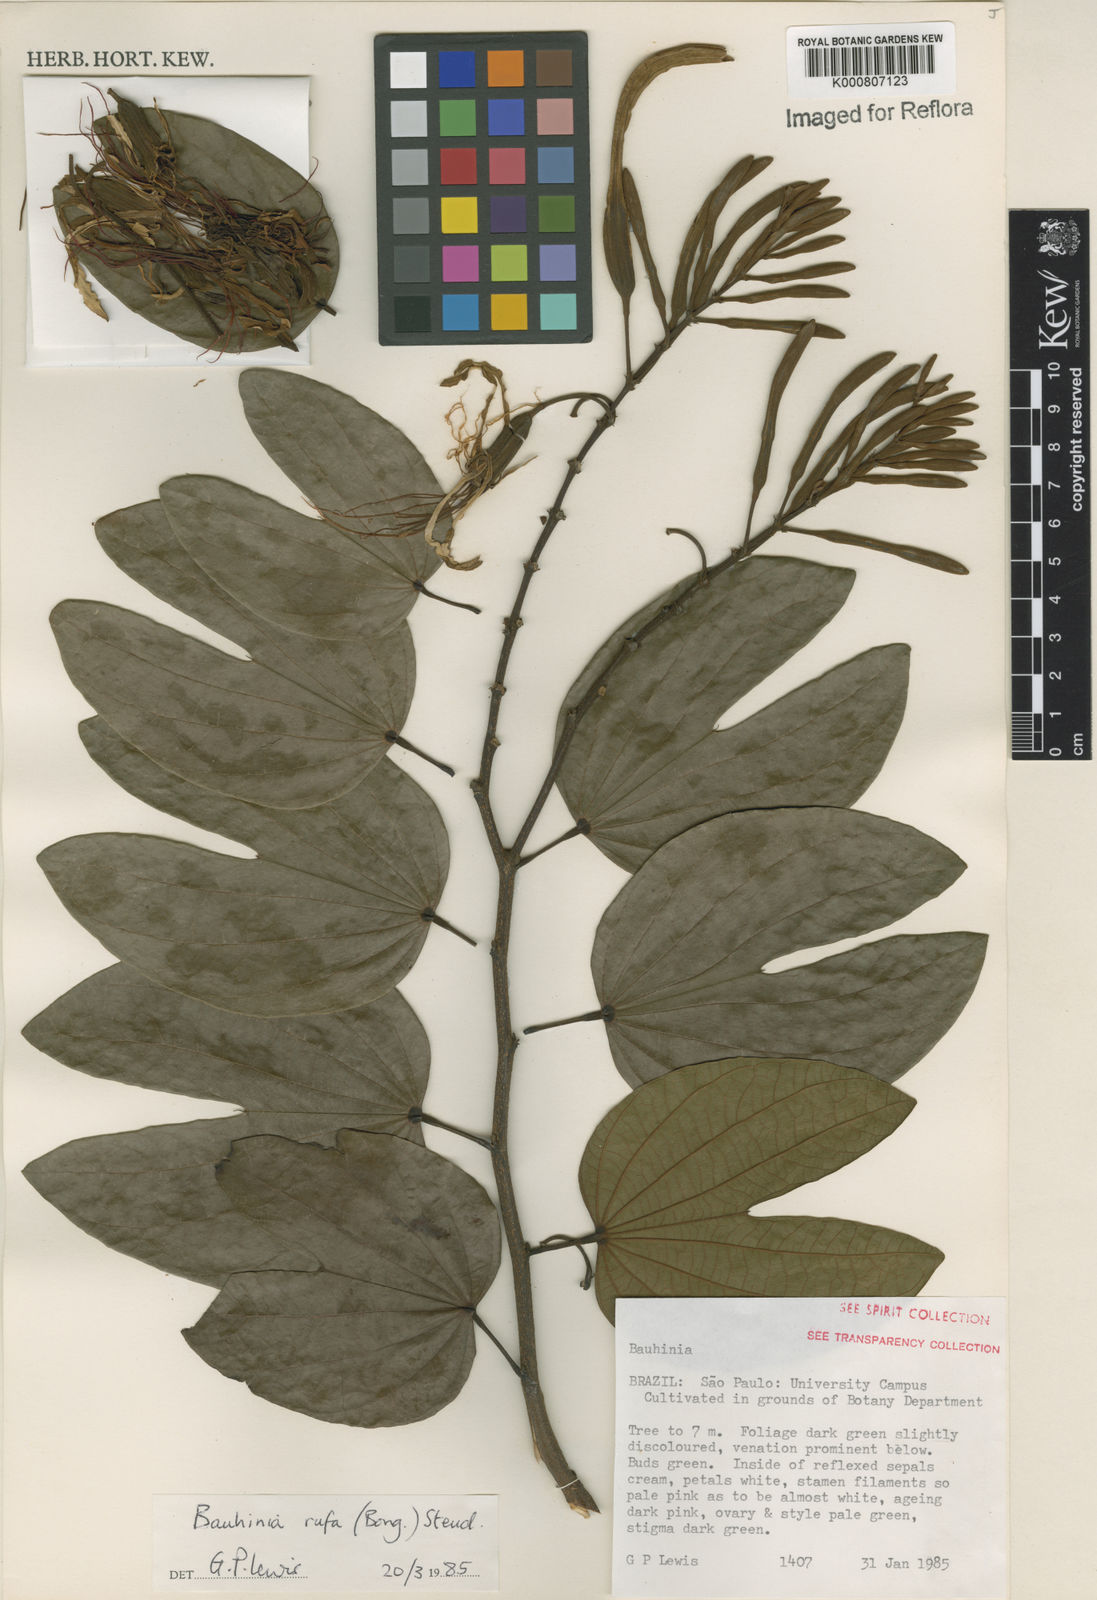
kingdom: Plantae
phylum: Tracheophyta
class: Magnoliopsida
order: Fabales
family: Fabaceae
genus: Bauhinia
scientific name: Bauhinia rufa
